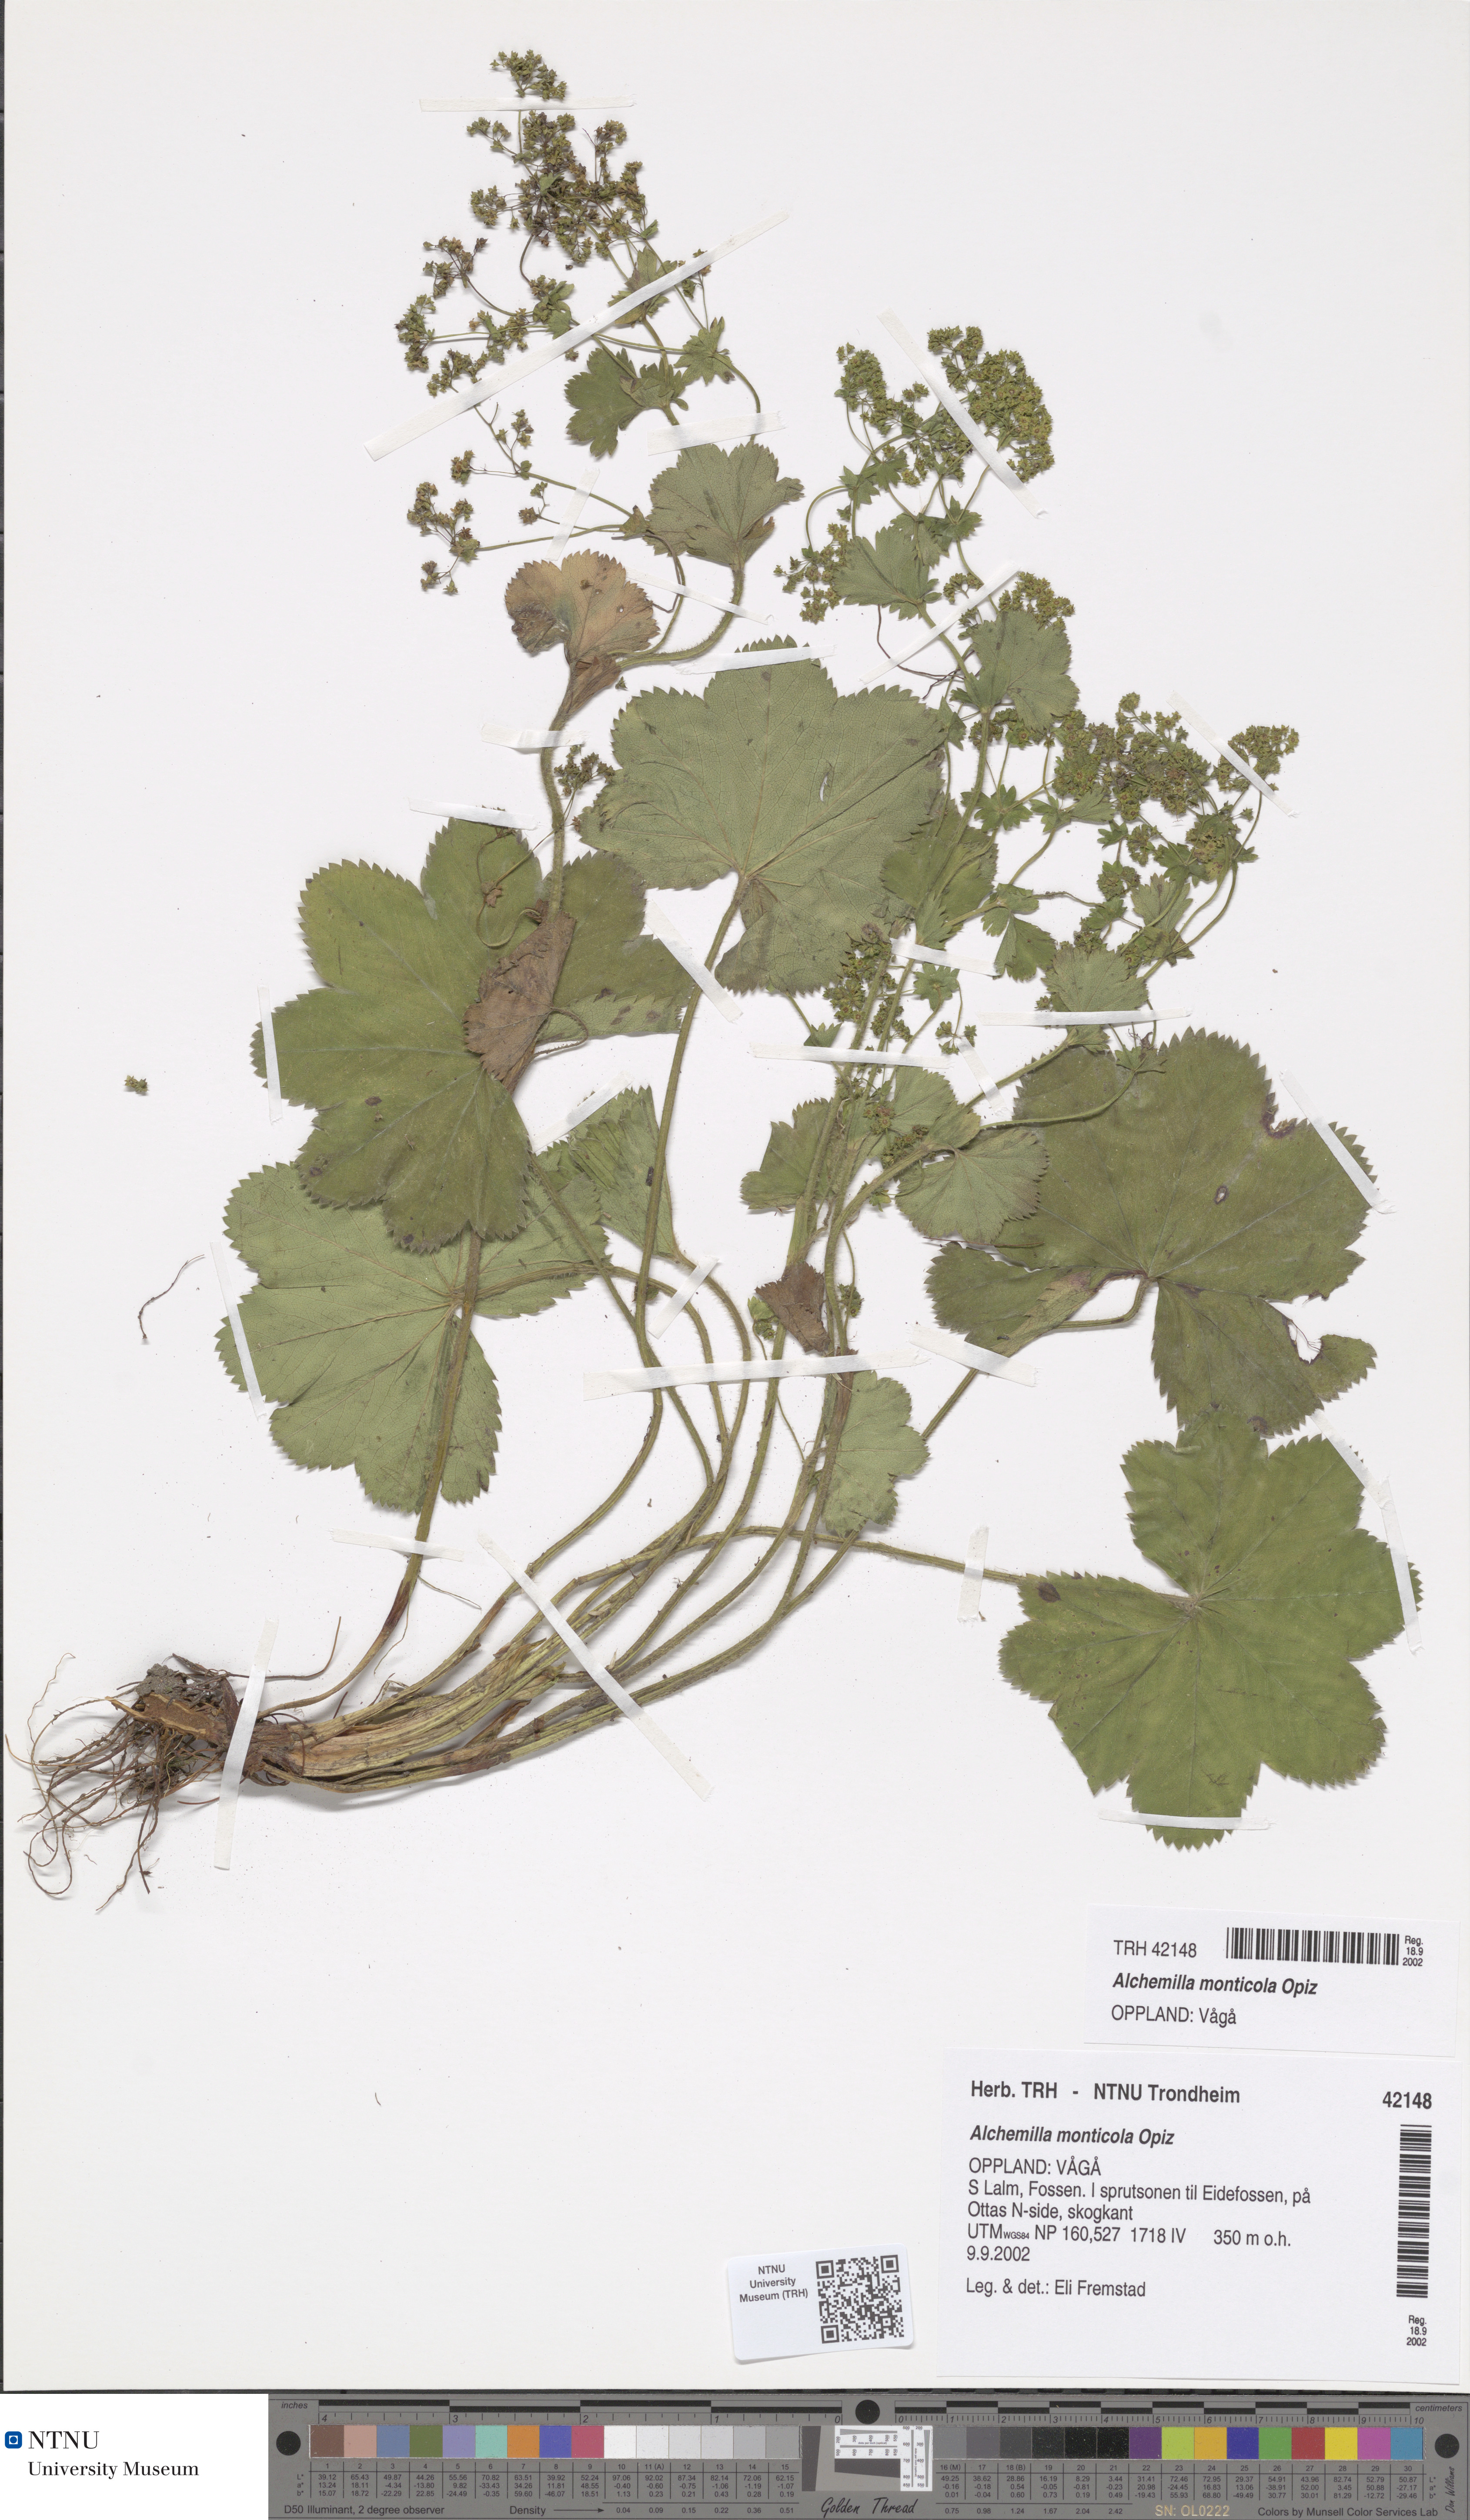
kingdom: Plantae
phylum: Tracheophyta
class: Magnoliopsida
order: Rosales
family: Rosaceae
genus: Alchemilla
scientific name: Alchemilla monticola
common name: Hairy lady's mantle
